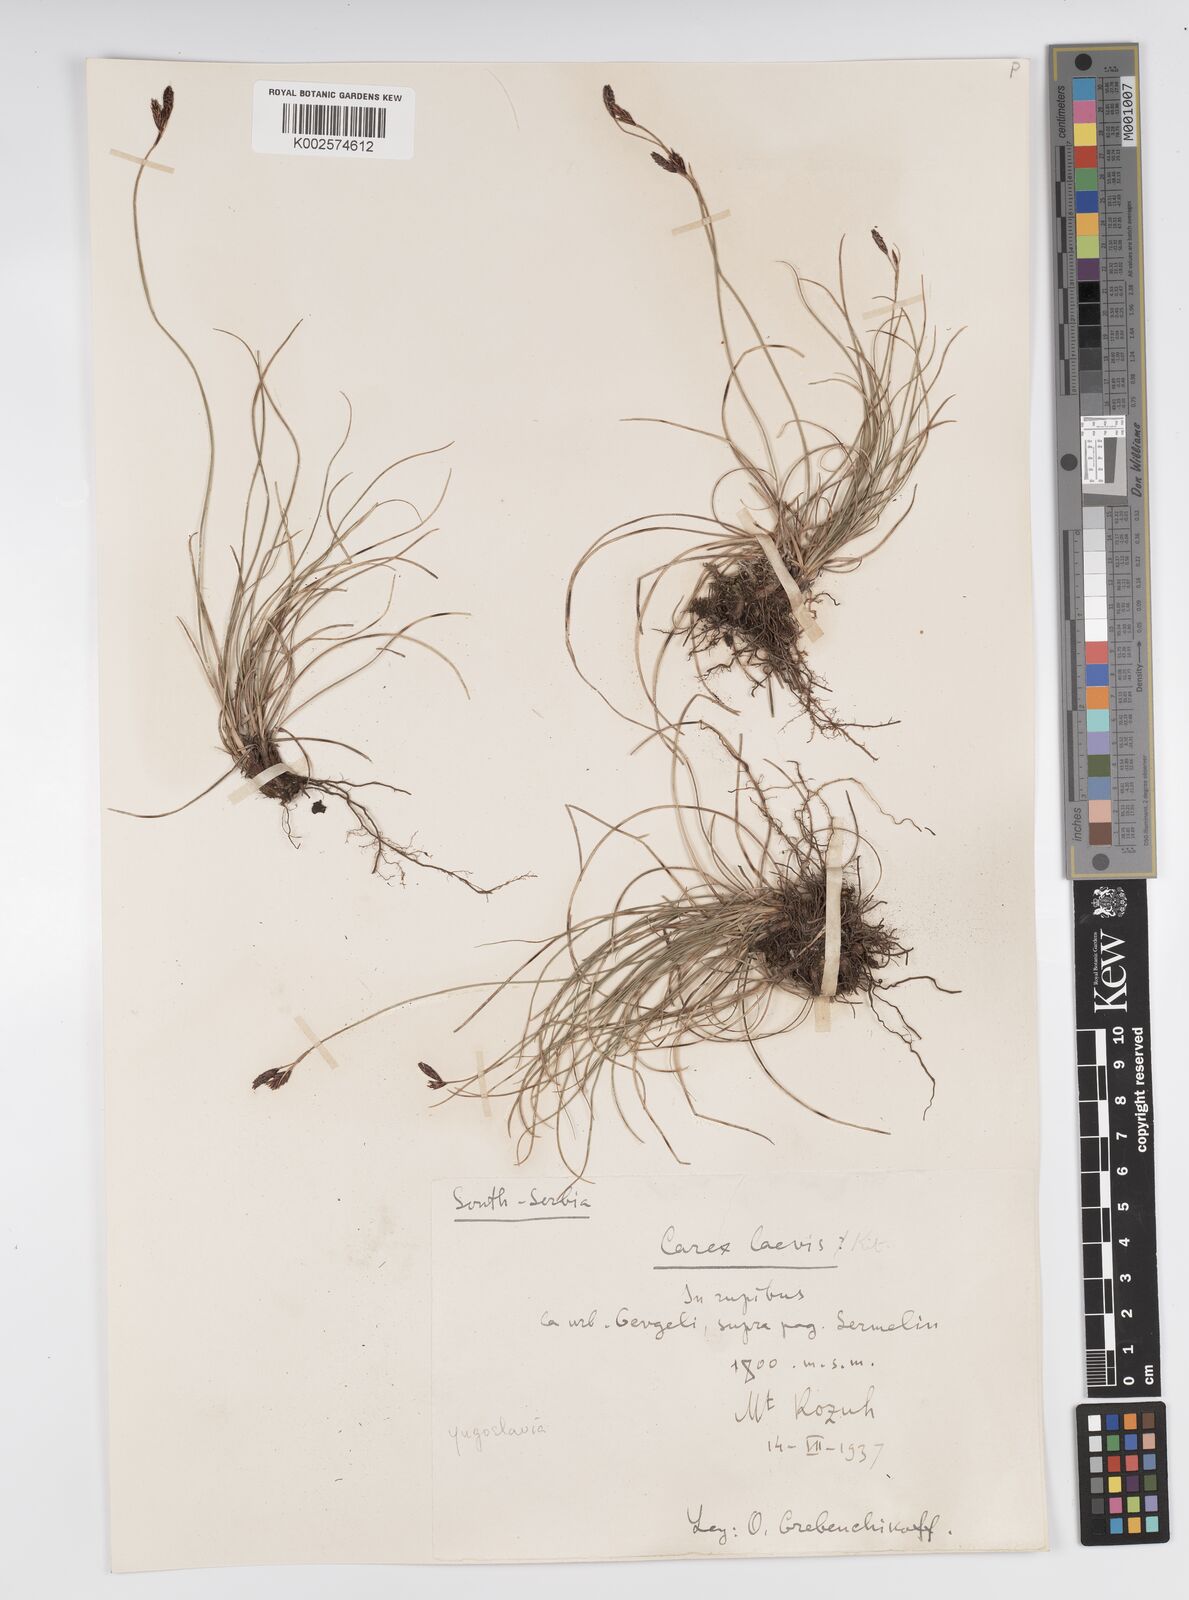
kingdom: Plantae
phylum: Tracheophyta
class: Liliopsida
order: Poales
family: Cyperaceae
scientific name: Cyperaceae
